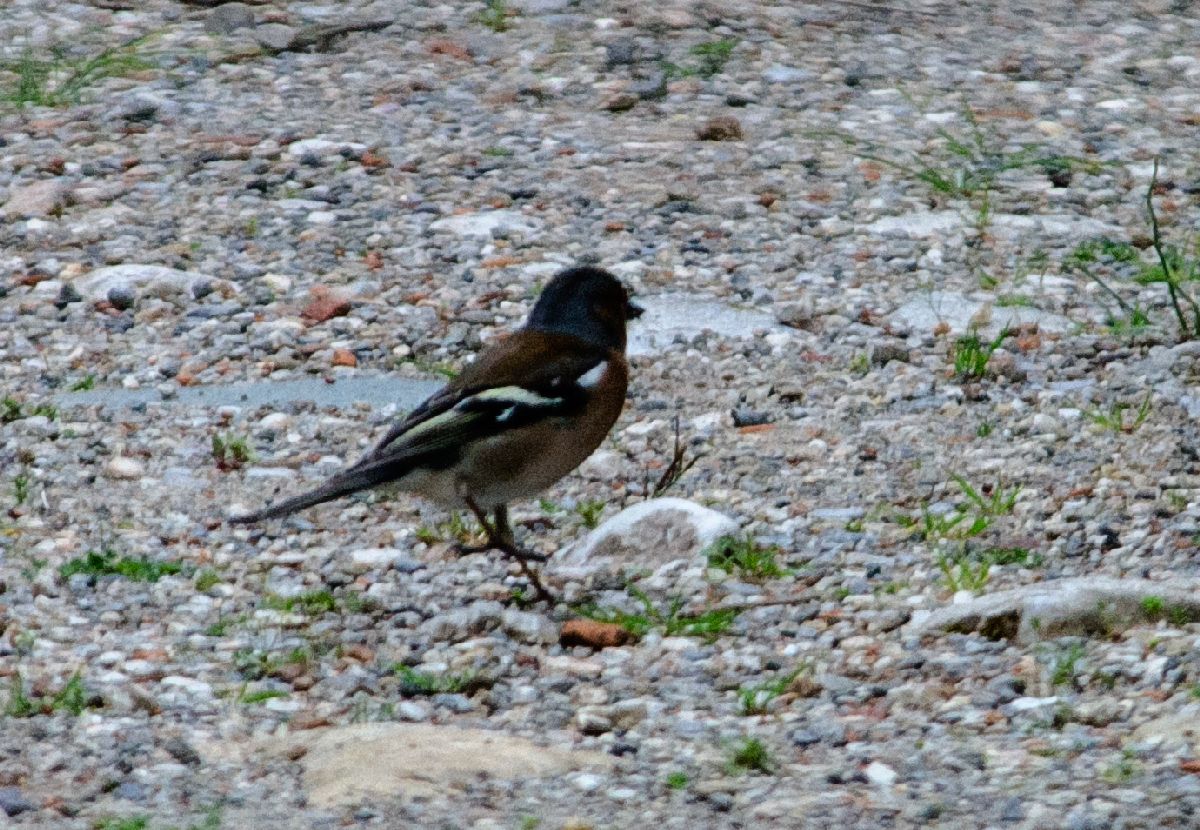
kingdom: Animalia
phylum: Chordata
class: Aves
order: Passeriformes
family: Fringillidae
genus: Fringilla
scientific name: Fringilla coelebs
